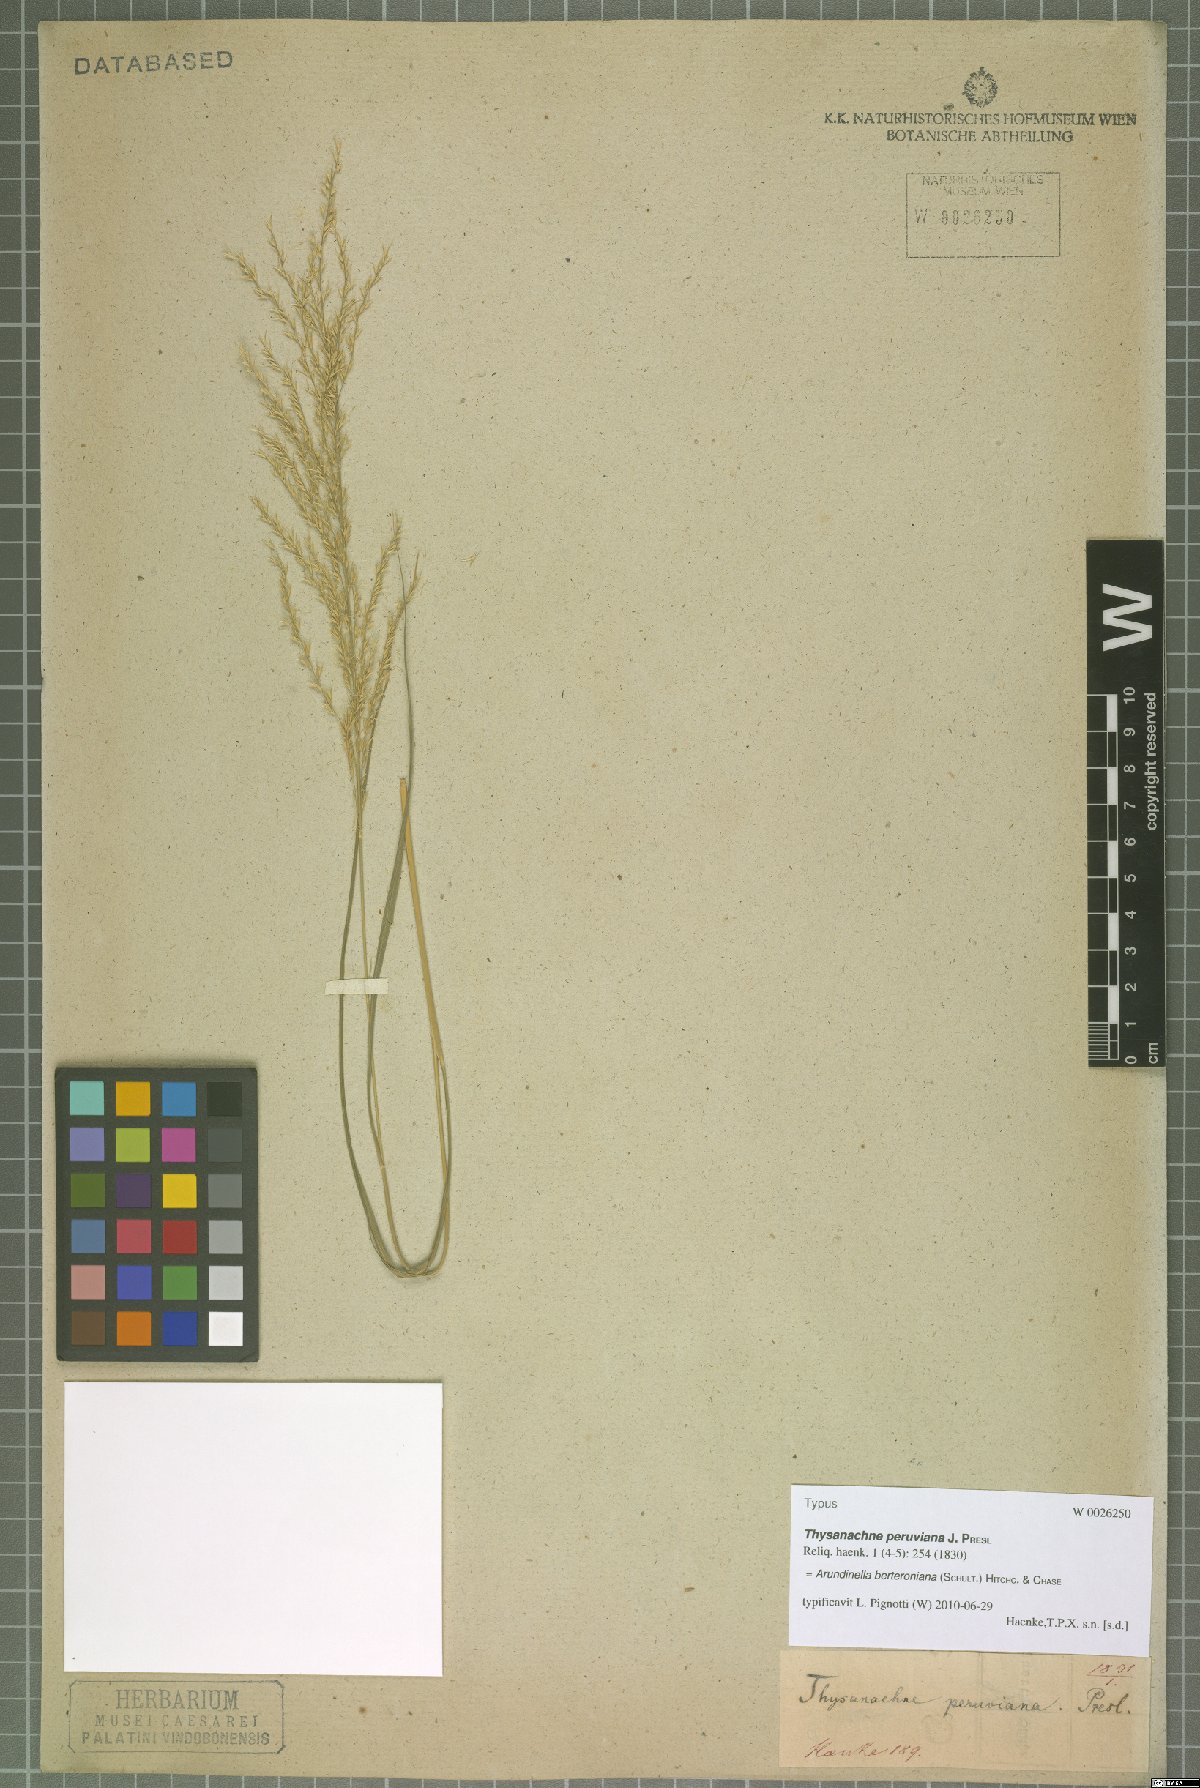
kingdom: Plantae
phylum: Tracheophyta
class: Liliopsida
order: Poales
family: Poaceae
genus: Arundinella
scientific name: Arundinella berteroniana
